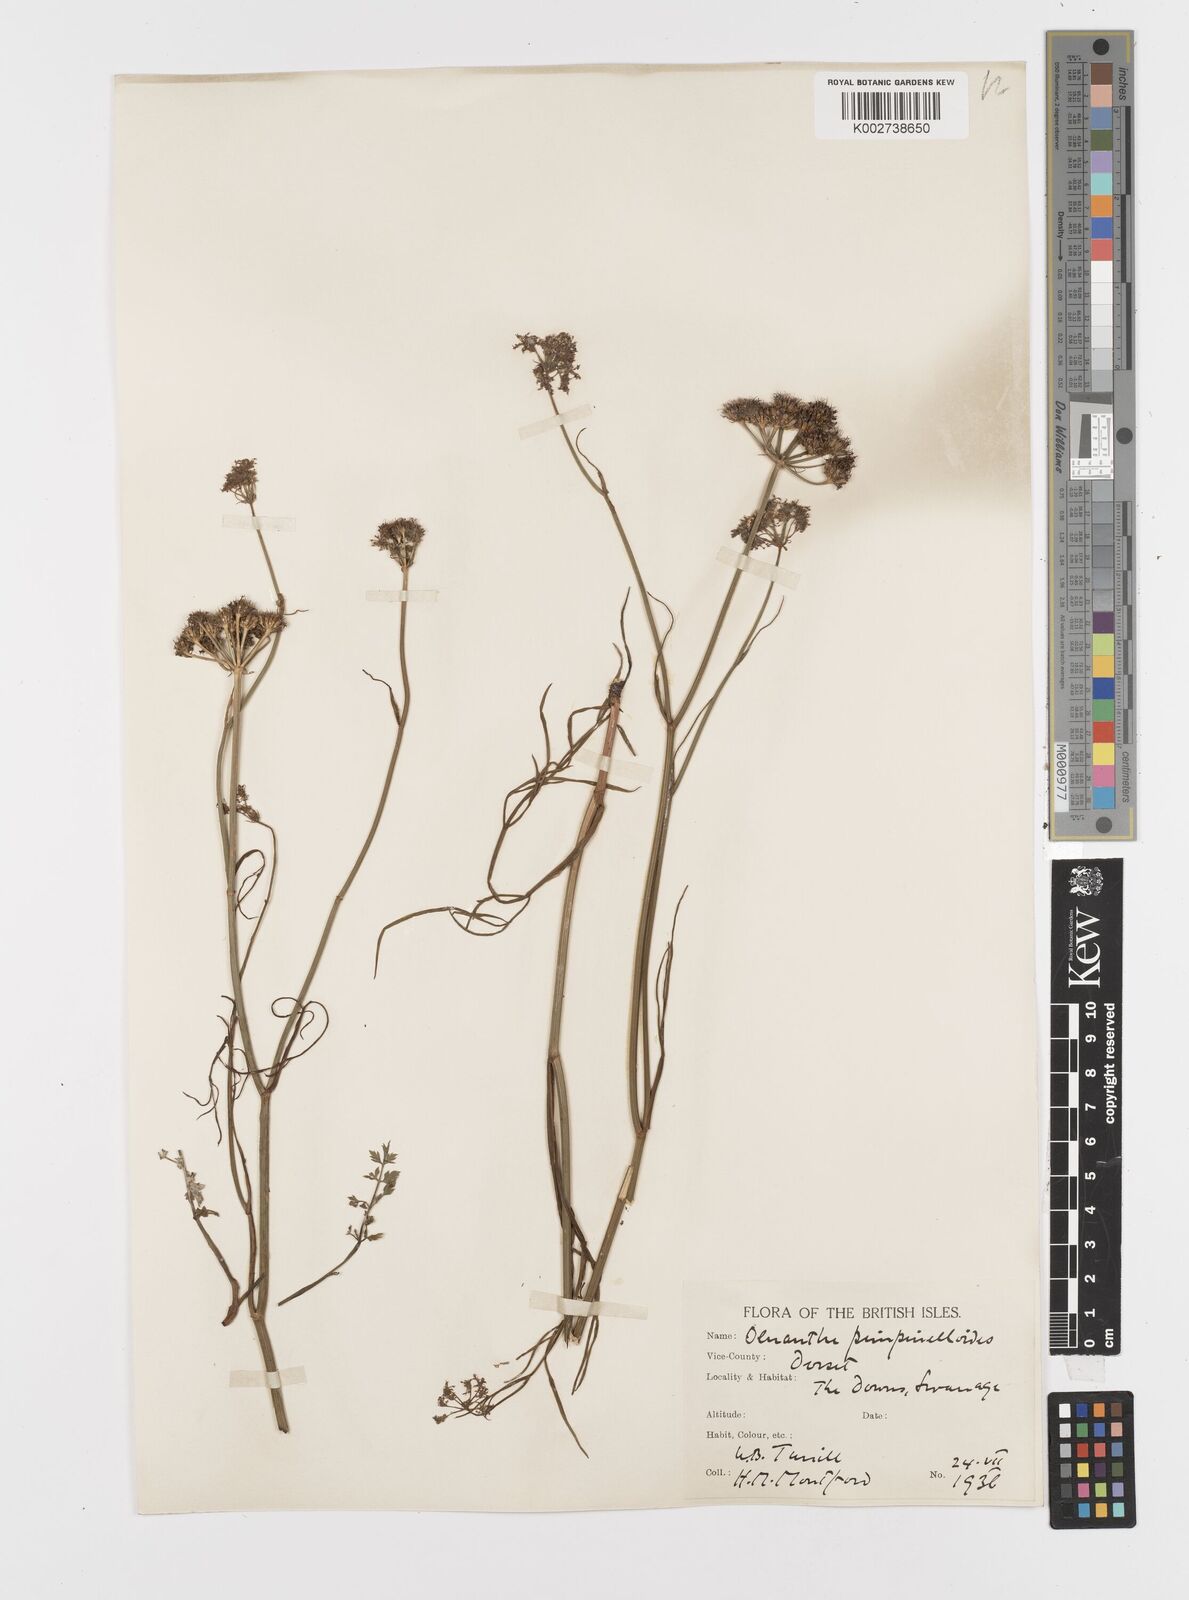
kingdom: Plantae
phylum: Tracheophyta
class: Magnoliopsida
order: Apiales
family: Apiaceae
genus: Oenanthe
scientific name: Oenanthe pimpinelloides
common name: Corky-fruited water-dropwort
